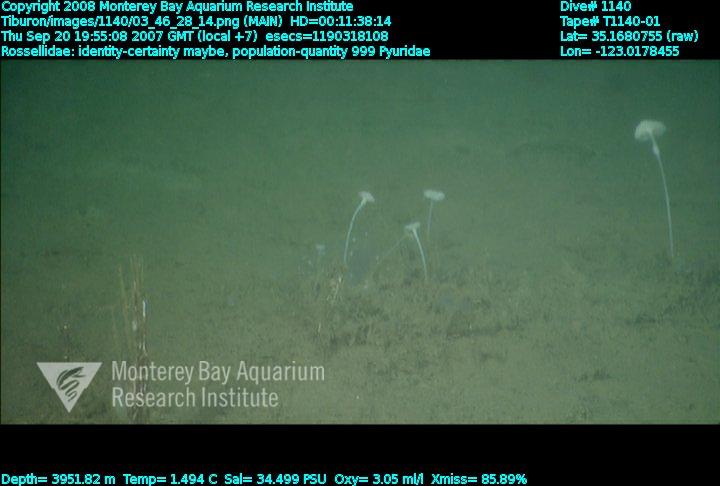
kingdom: Animalia
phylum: Porifera
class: Hexactinellida
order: Lyssacinosida
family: Rossellidae
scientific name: Rossellidae
